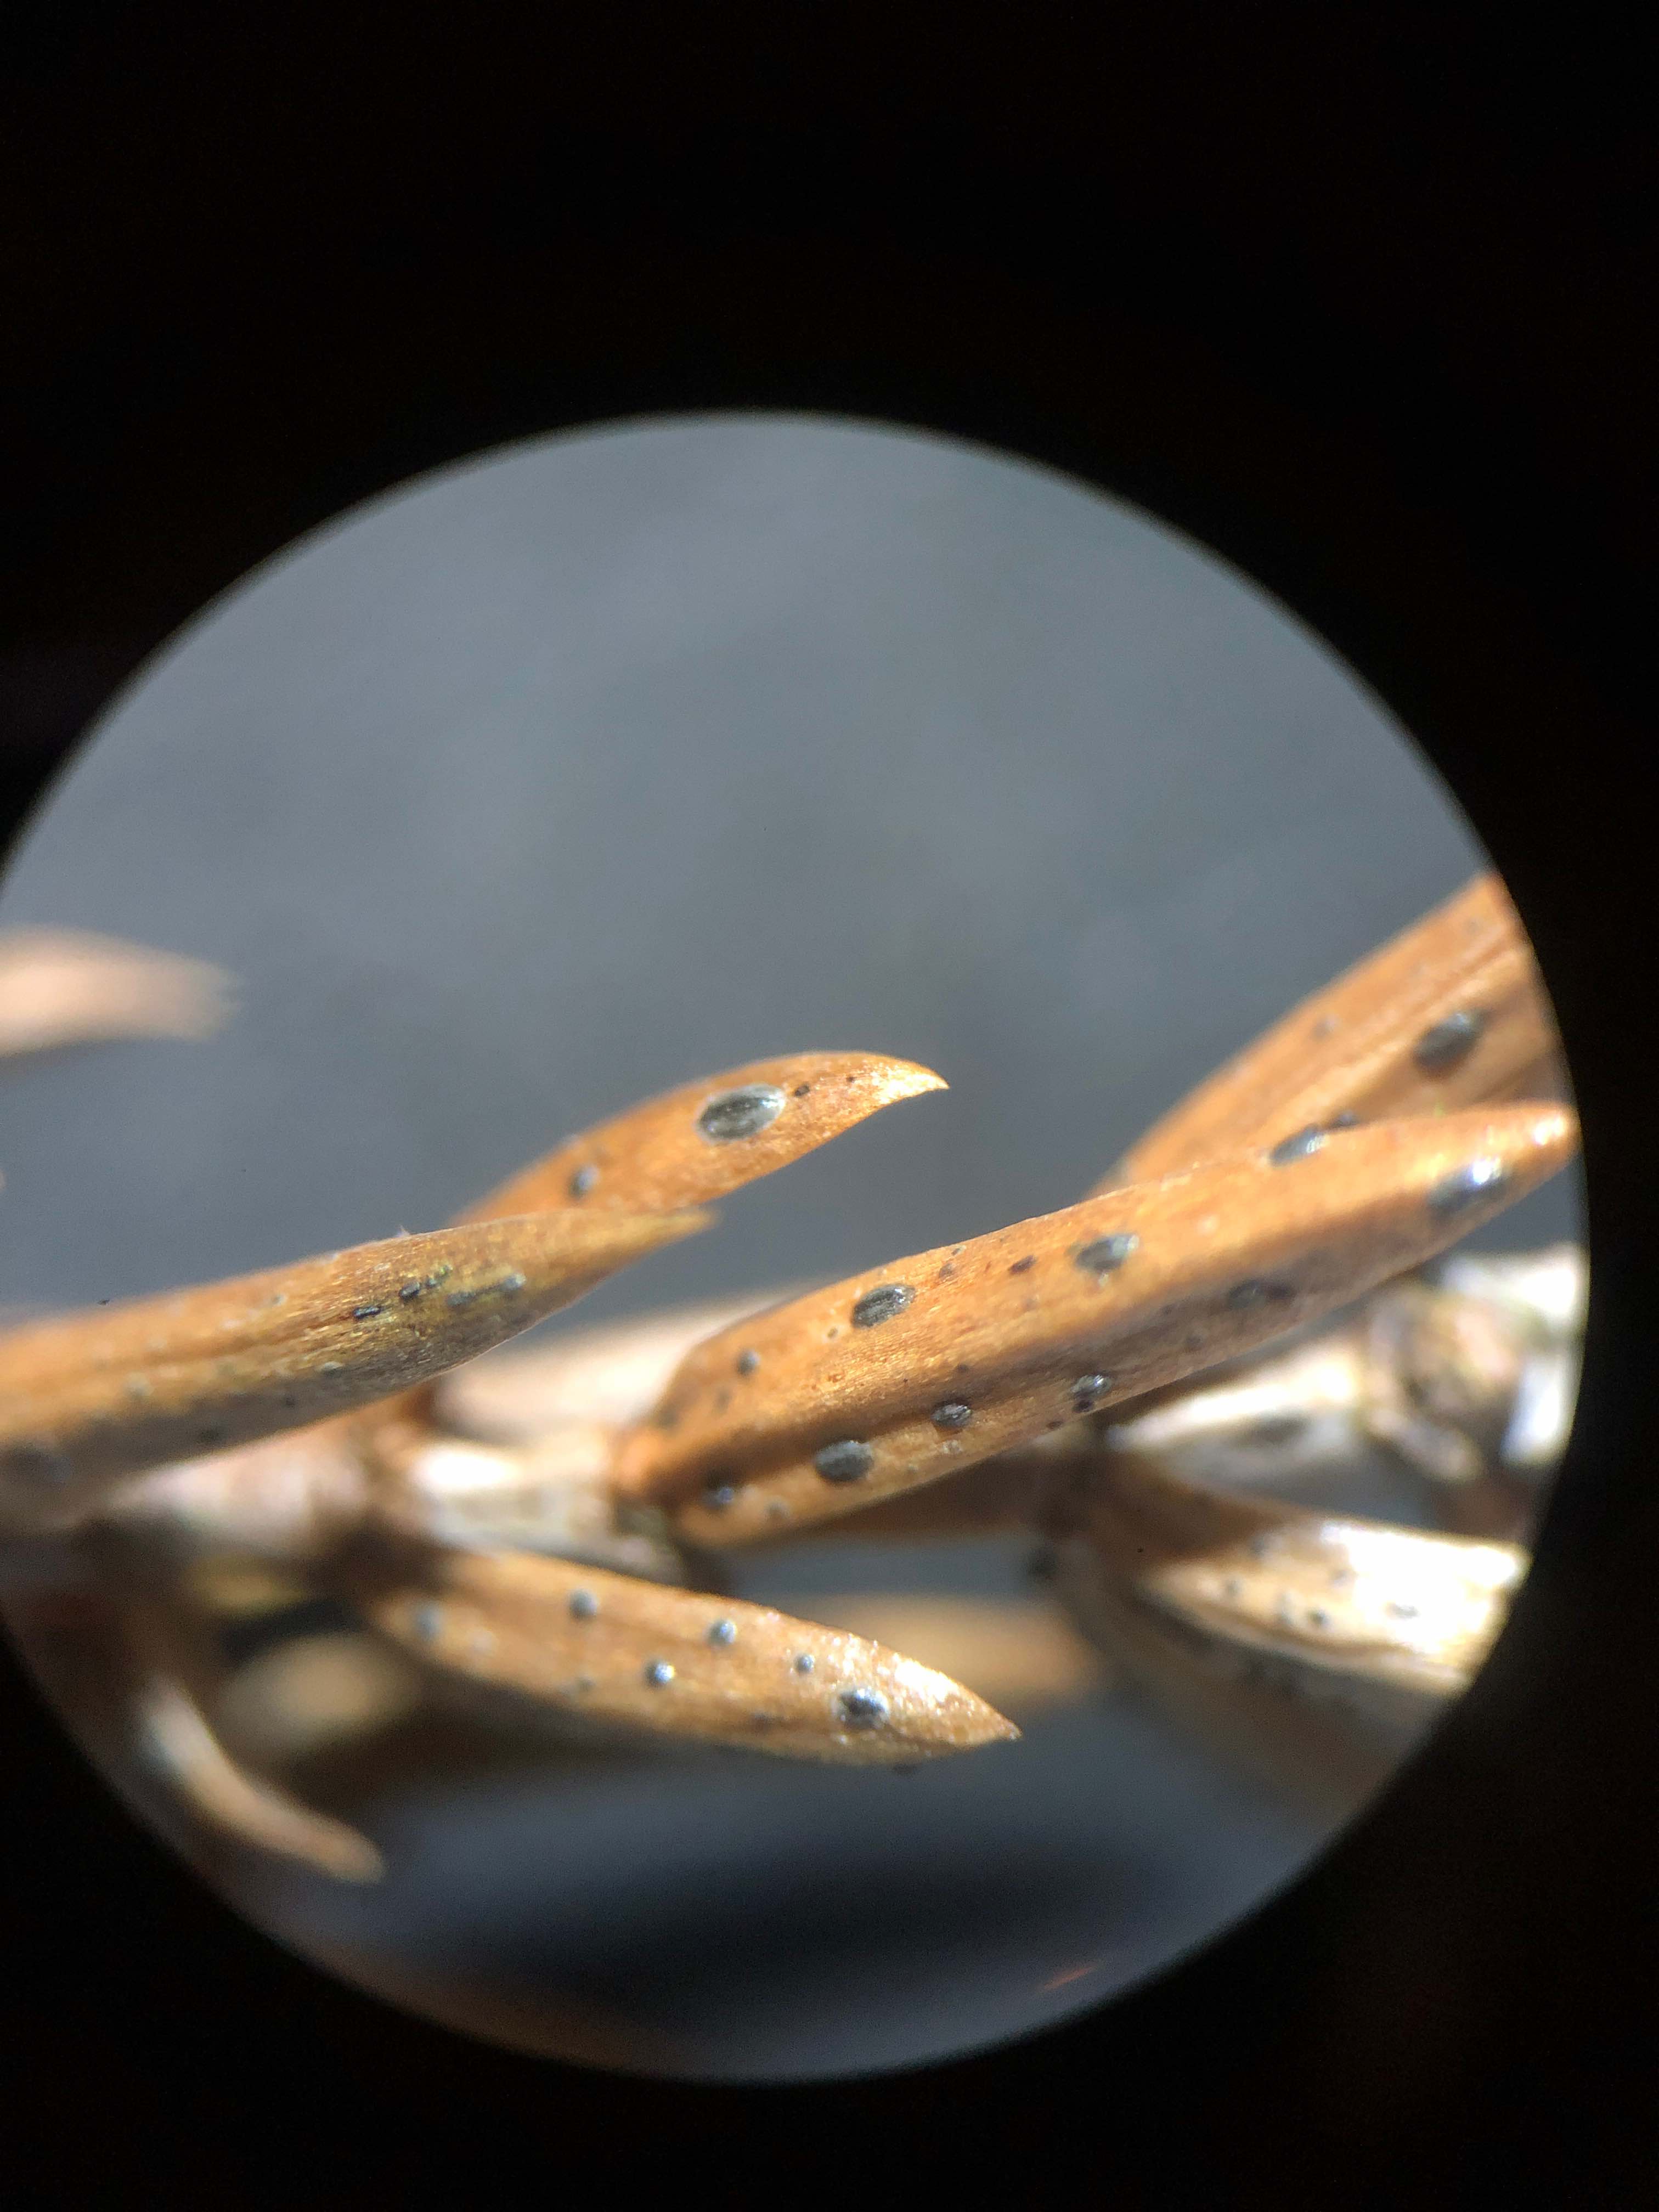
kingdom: Fungi
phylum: Ascomycota
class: Leotiomycetes
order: Rhytismatales
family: Rhytismataceae
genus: Lophodermium
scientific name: Lophodermium juniperinum
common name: ene-fureplet
